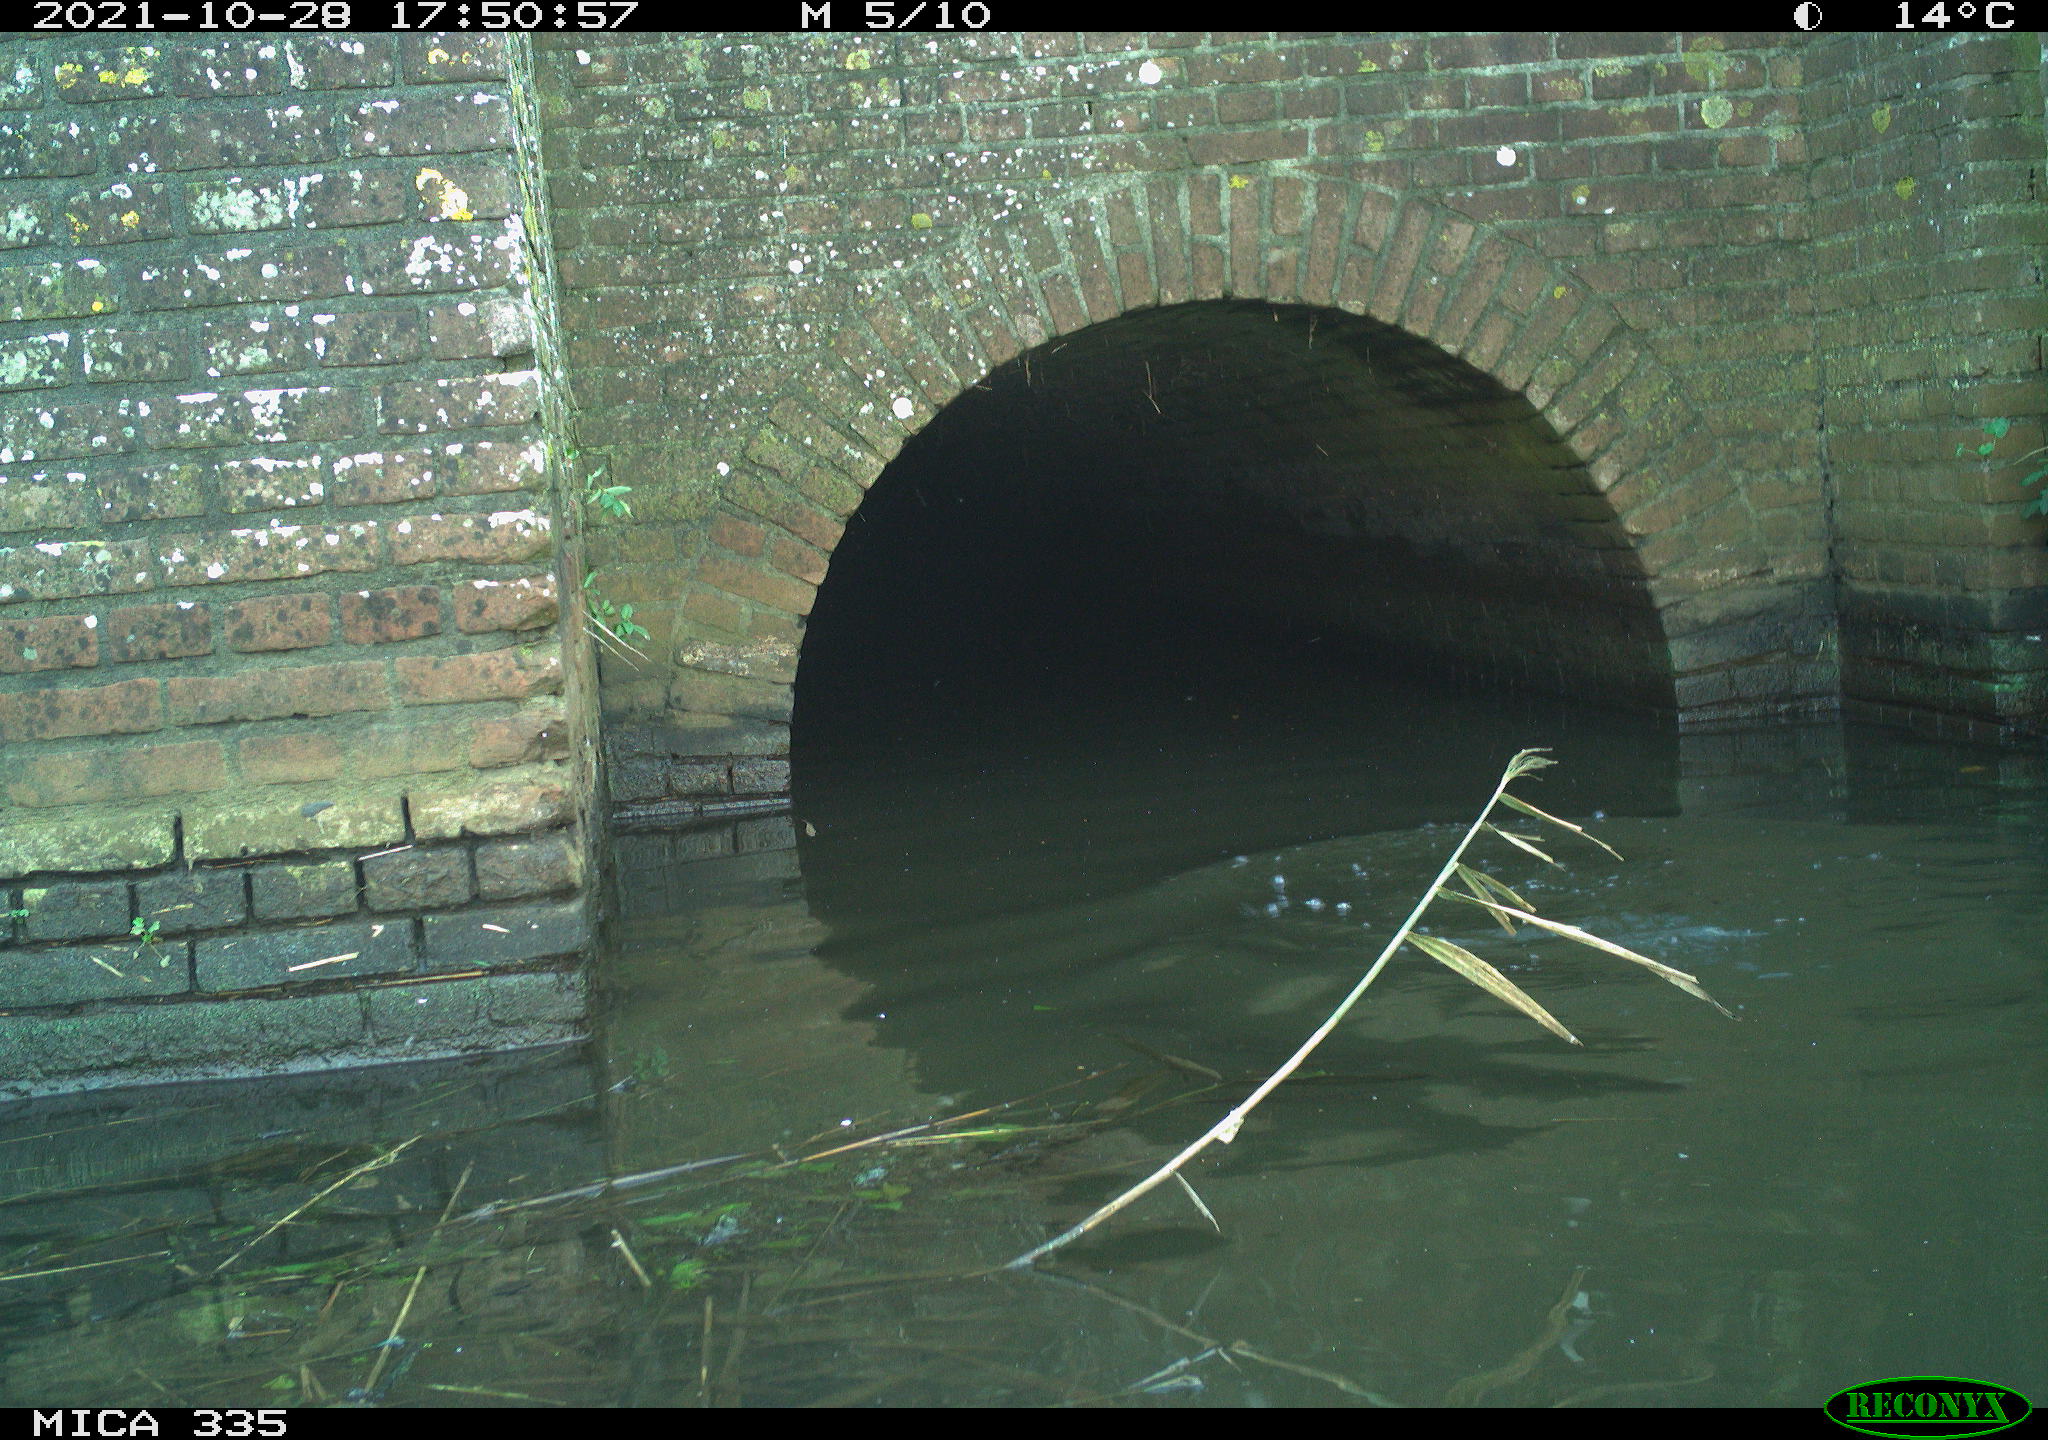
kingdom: Animalia
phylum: Chordata
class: Aves
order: Suliformes
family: Phalacrocoracidae
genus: Phalacrocorax
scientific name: Phalacrocorax carbo
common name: Great cormorant
